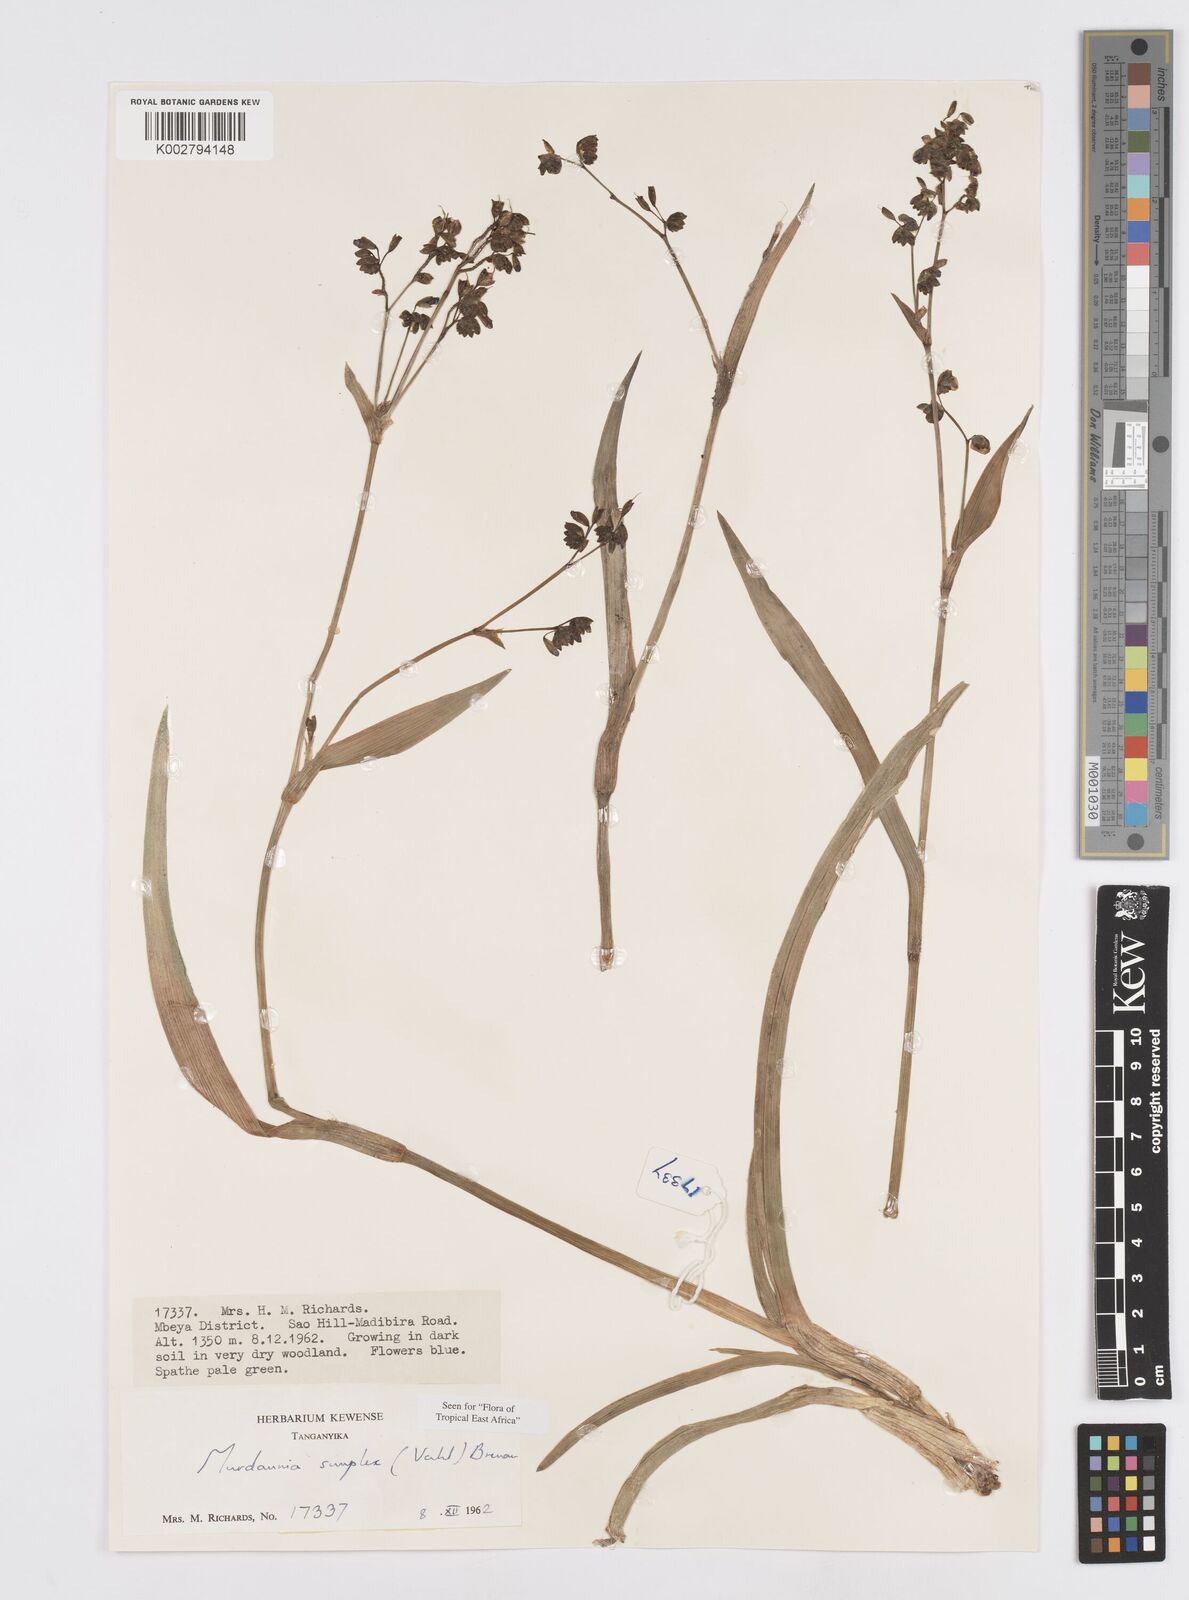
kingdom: Plantae
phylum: Tracheophyta
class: Liliopsida
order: Commelinales
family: Commelinaceae
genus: Murdannia
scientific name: Murdannia simplex
